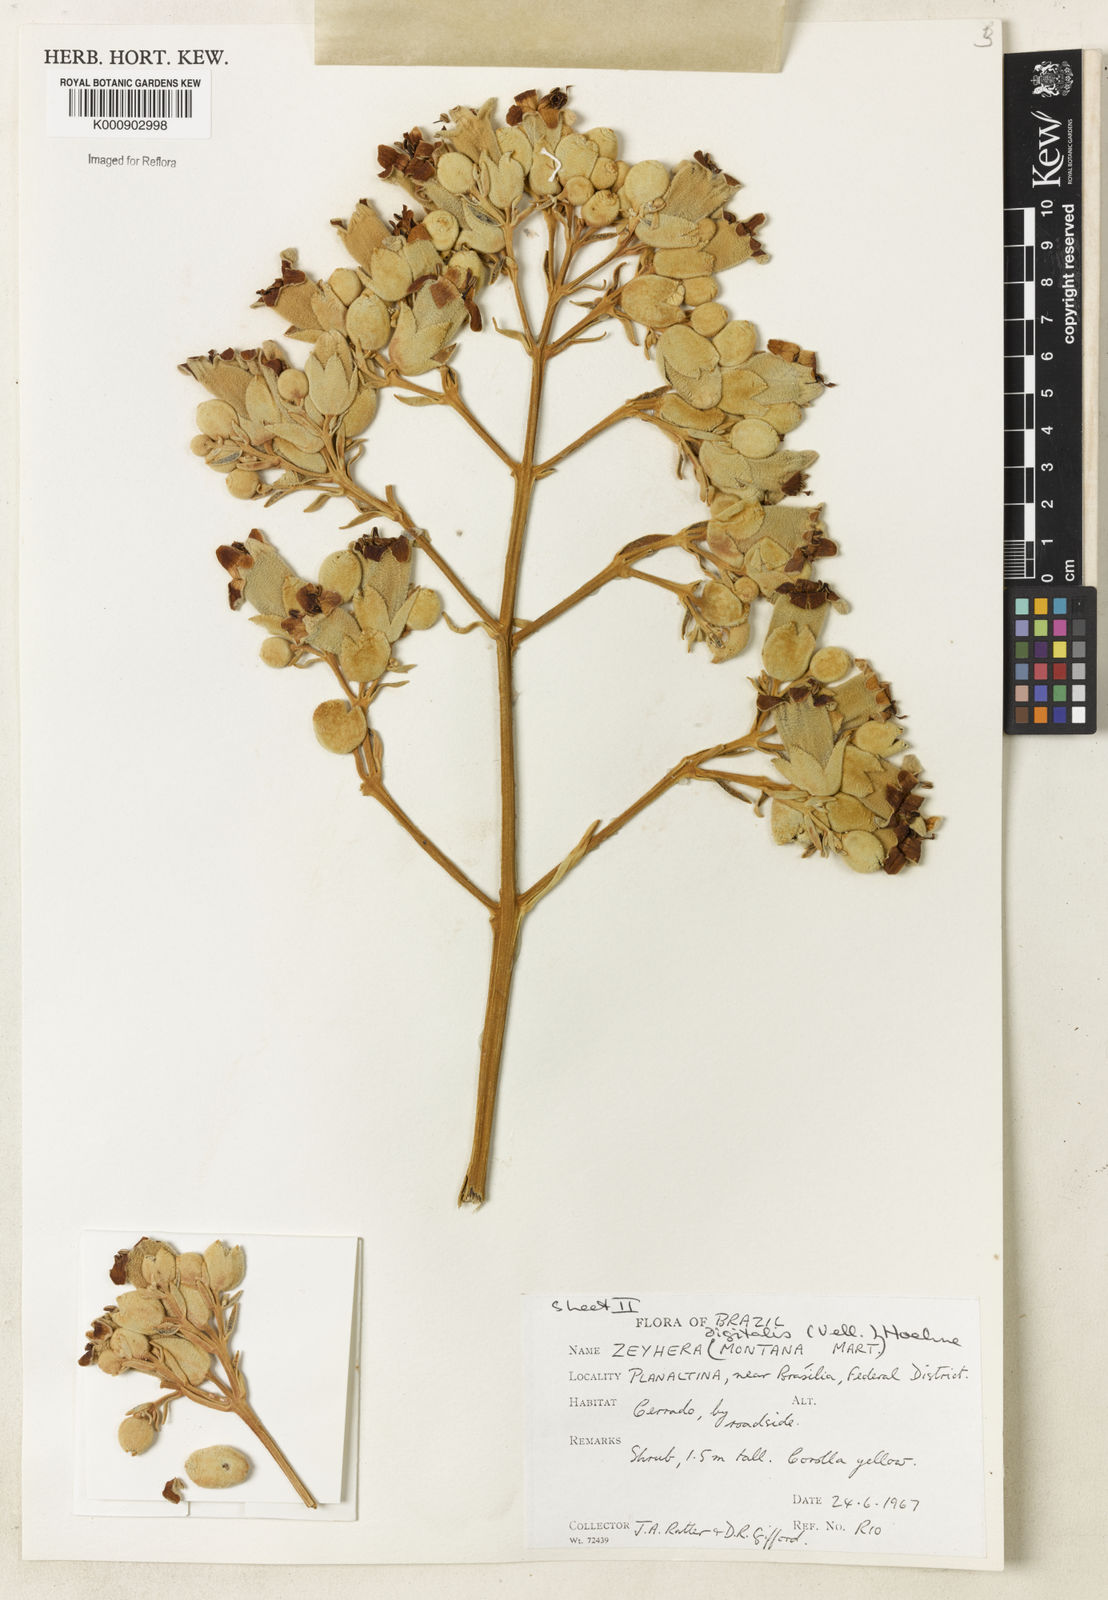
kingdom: Plantae
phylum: Tracheophyta
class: Magnoliopsida
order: Lamiales
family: Bignoniaceae
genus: Zeyheria
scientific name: Zeyheria
